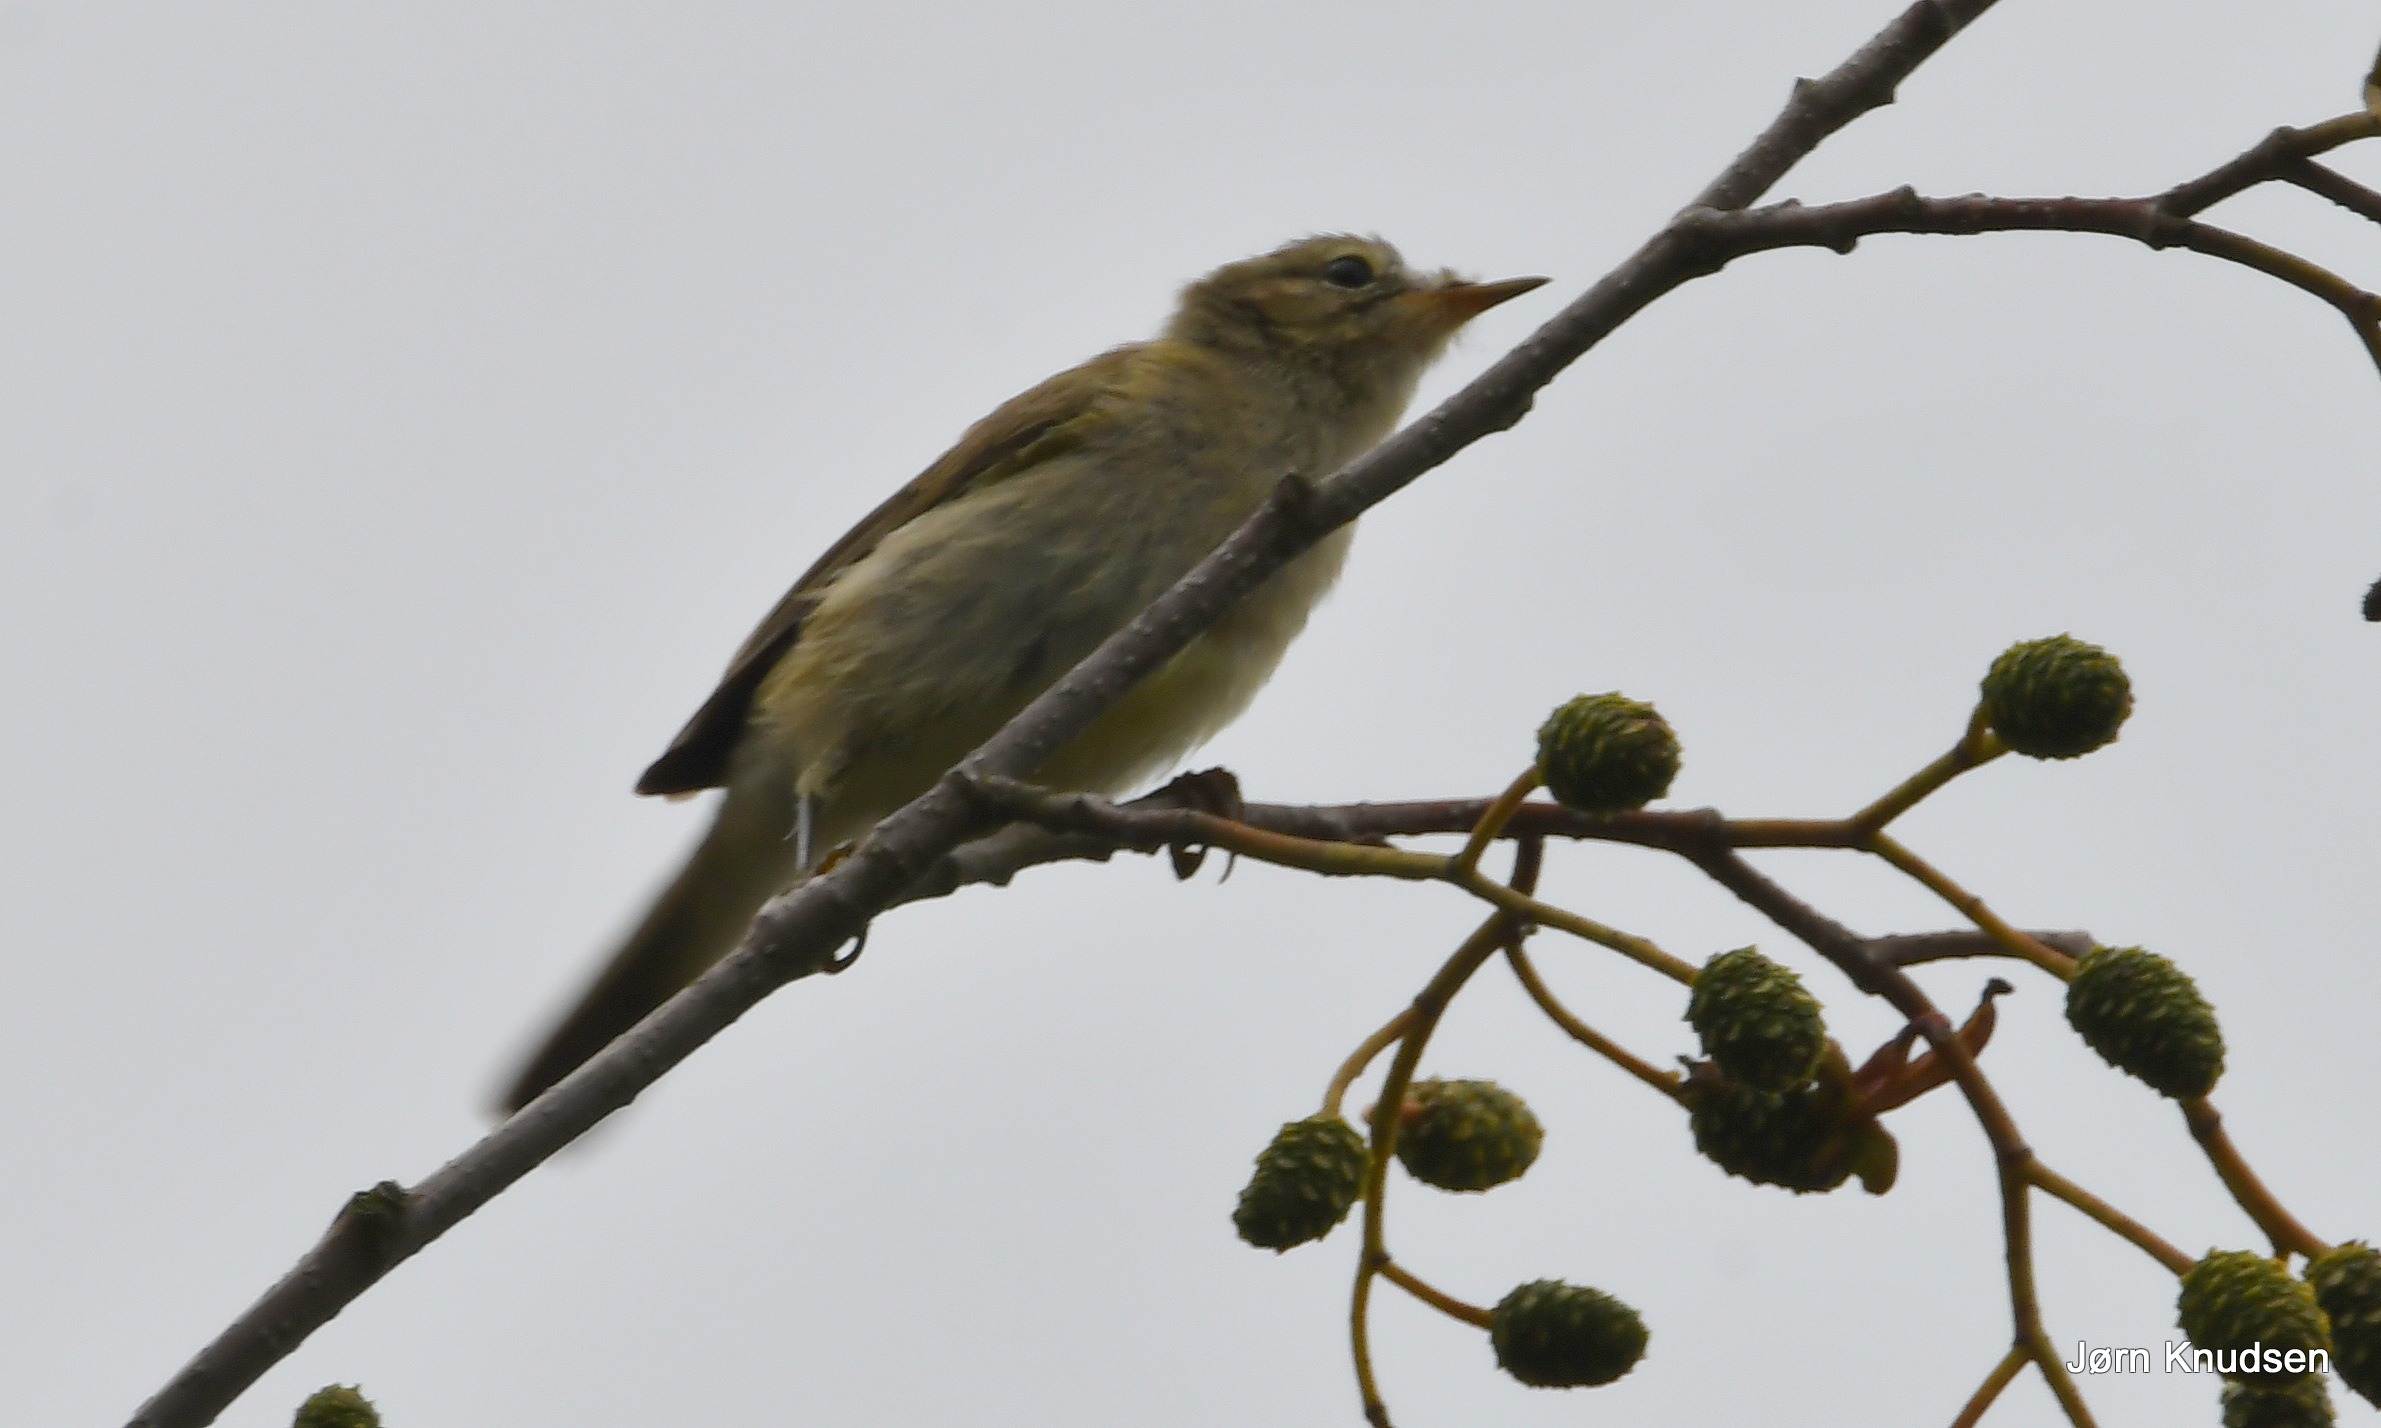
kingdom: Animalia
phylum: Chordata
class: Aves
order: Passeriformes
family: Phylloscopidae
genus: Phylloscopus
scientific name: Phylloscopus collybita
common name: Gransanger
